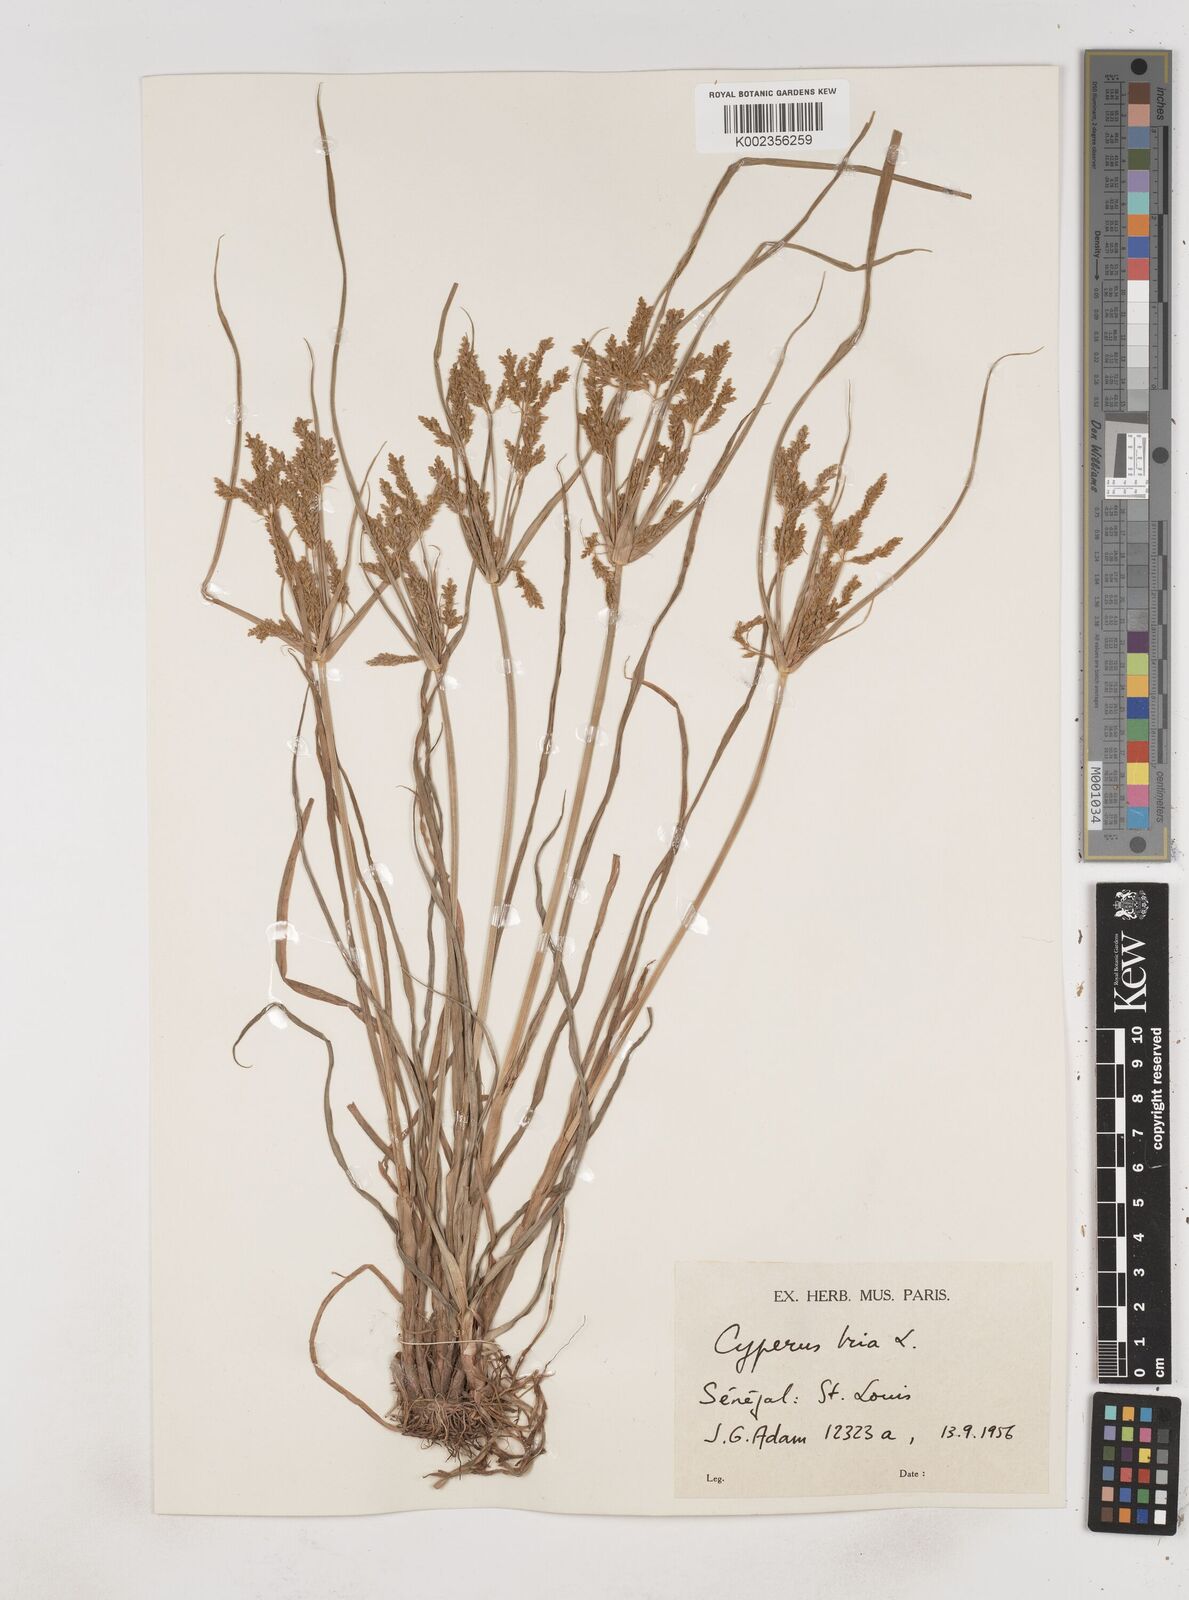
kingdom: Plantae
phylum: Tracheophyta
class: Liliopsida
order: Poales
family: Cyperaceae
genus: Cyperus
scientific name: Cyperus iria
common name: Ricefield flatsedge
